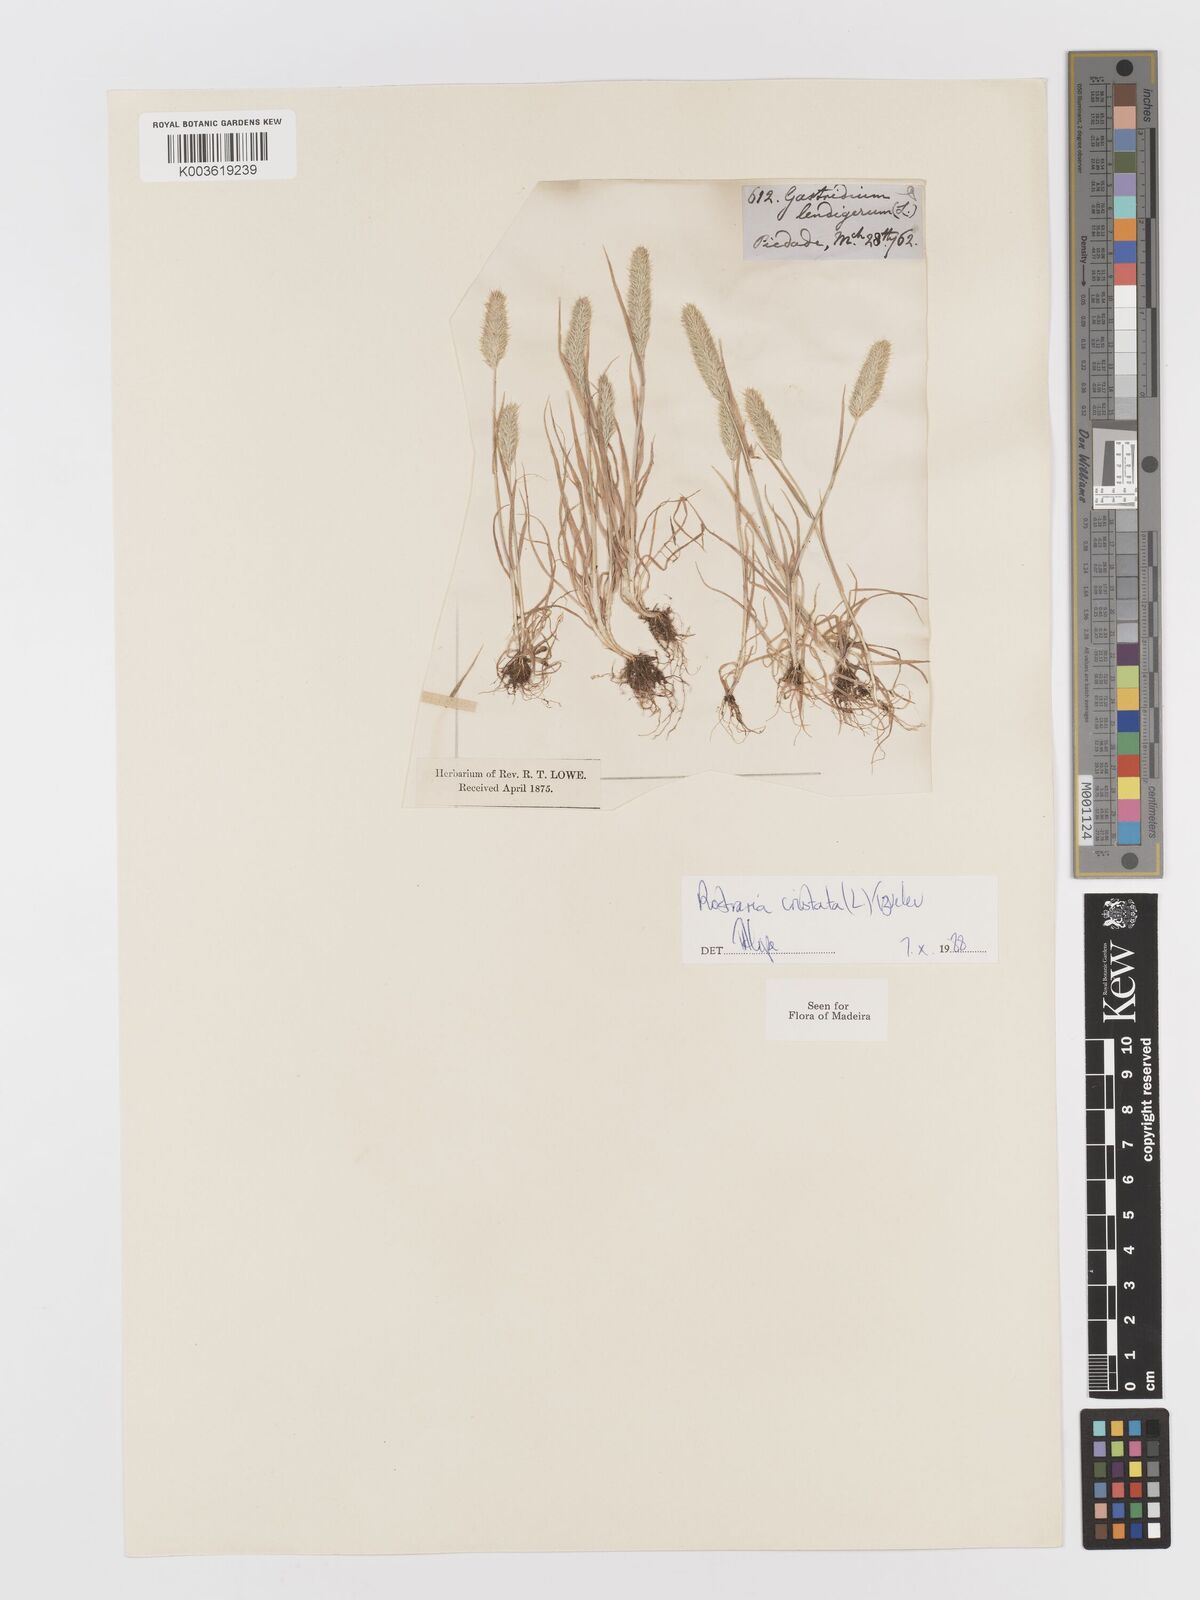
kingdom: Plantae
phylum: Tracheophyta
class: Liliopsida
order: Poales
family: Poaceae
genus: Rostraria
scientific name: Rostraria cristata
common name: Mediterranean hair-grass
